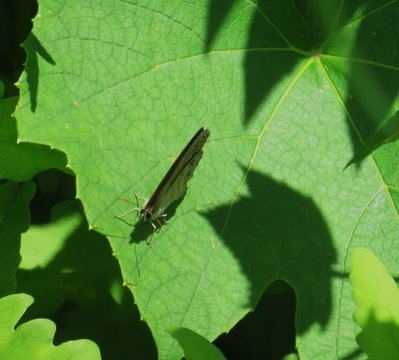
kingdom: Animalia
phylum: Arthropoda
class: Insecta
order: Lepidoptera
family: Nymphalidae
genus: Euptychia
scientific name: Euptychia cymela
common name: Little Wood Satyr
